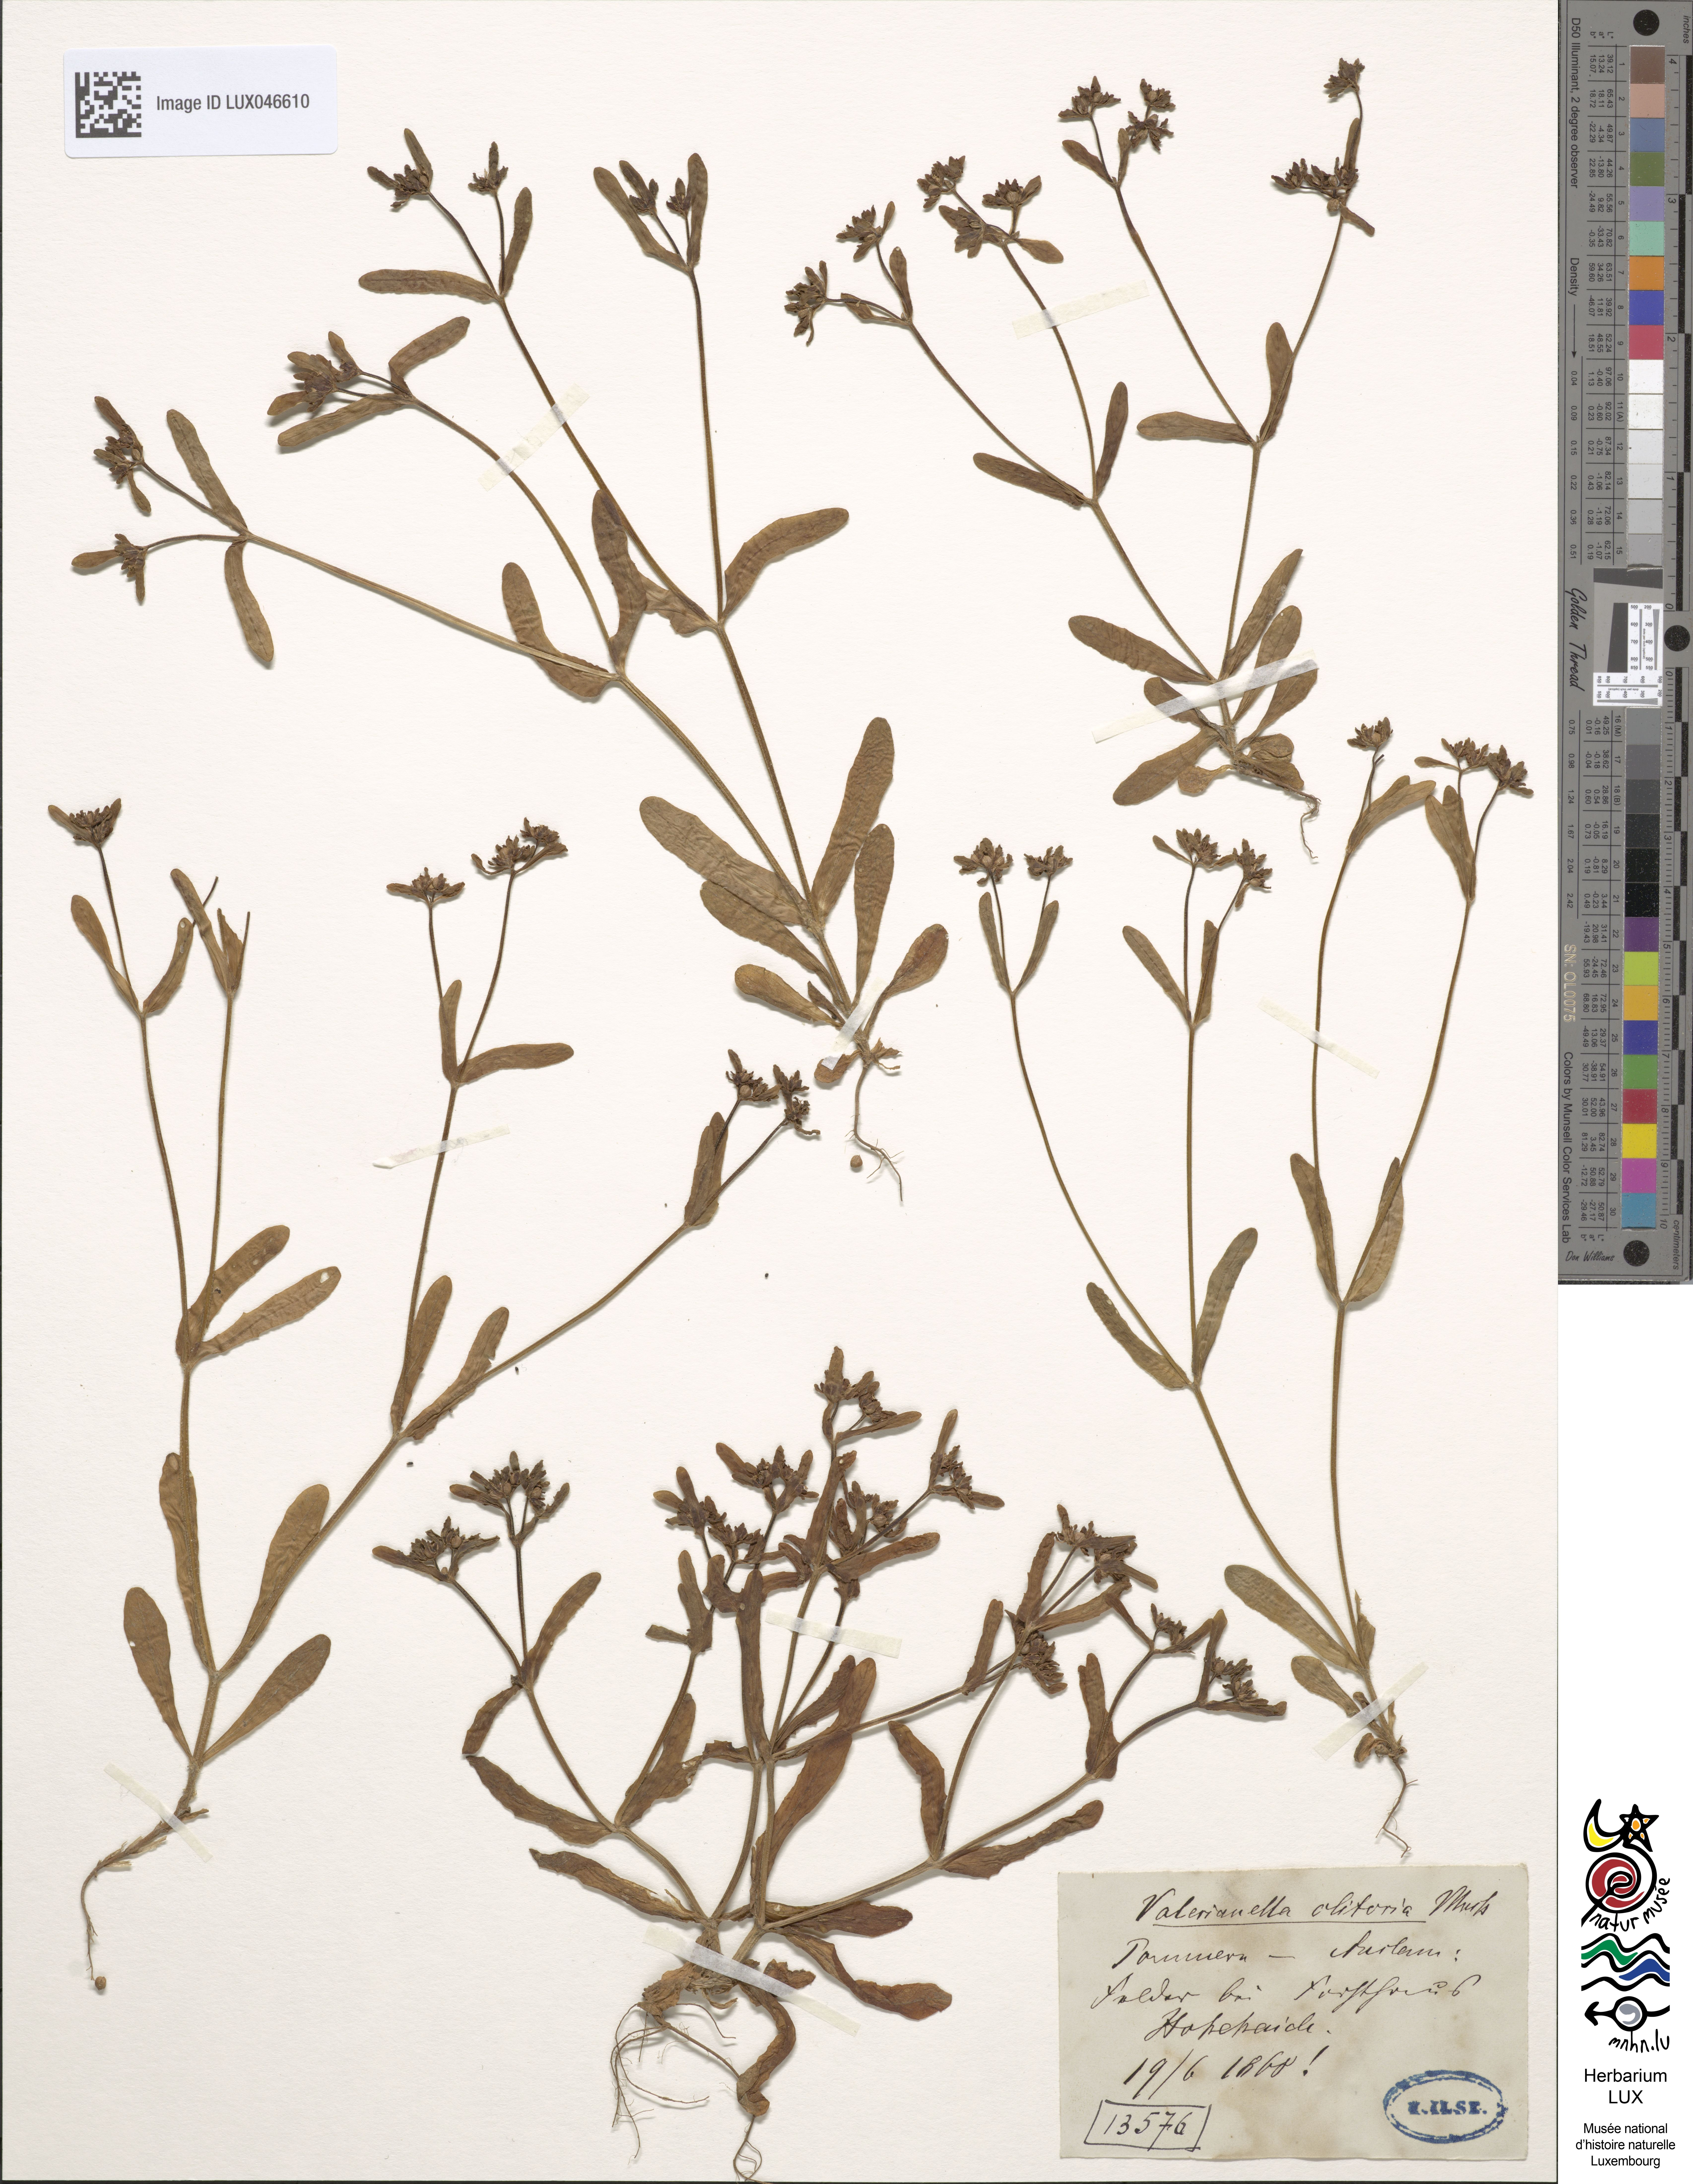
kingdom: Plantae
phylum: Tracheophyta
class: Magnoliopsida
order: Dipsacales
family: Caprifoliaceae
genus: Valerianella
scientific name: Valerianella locusta
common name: Common cornsalad
